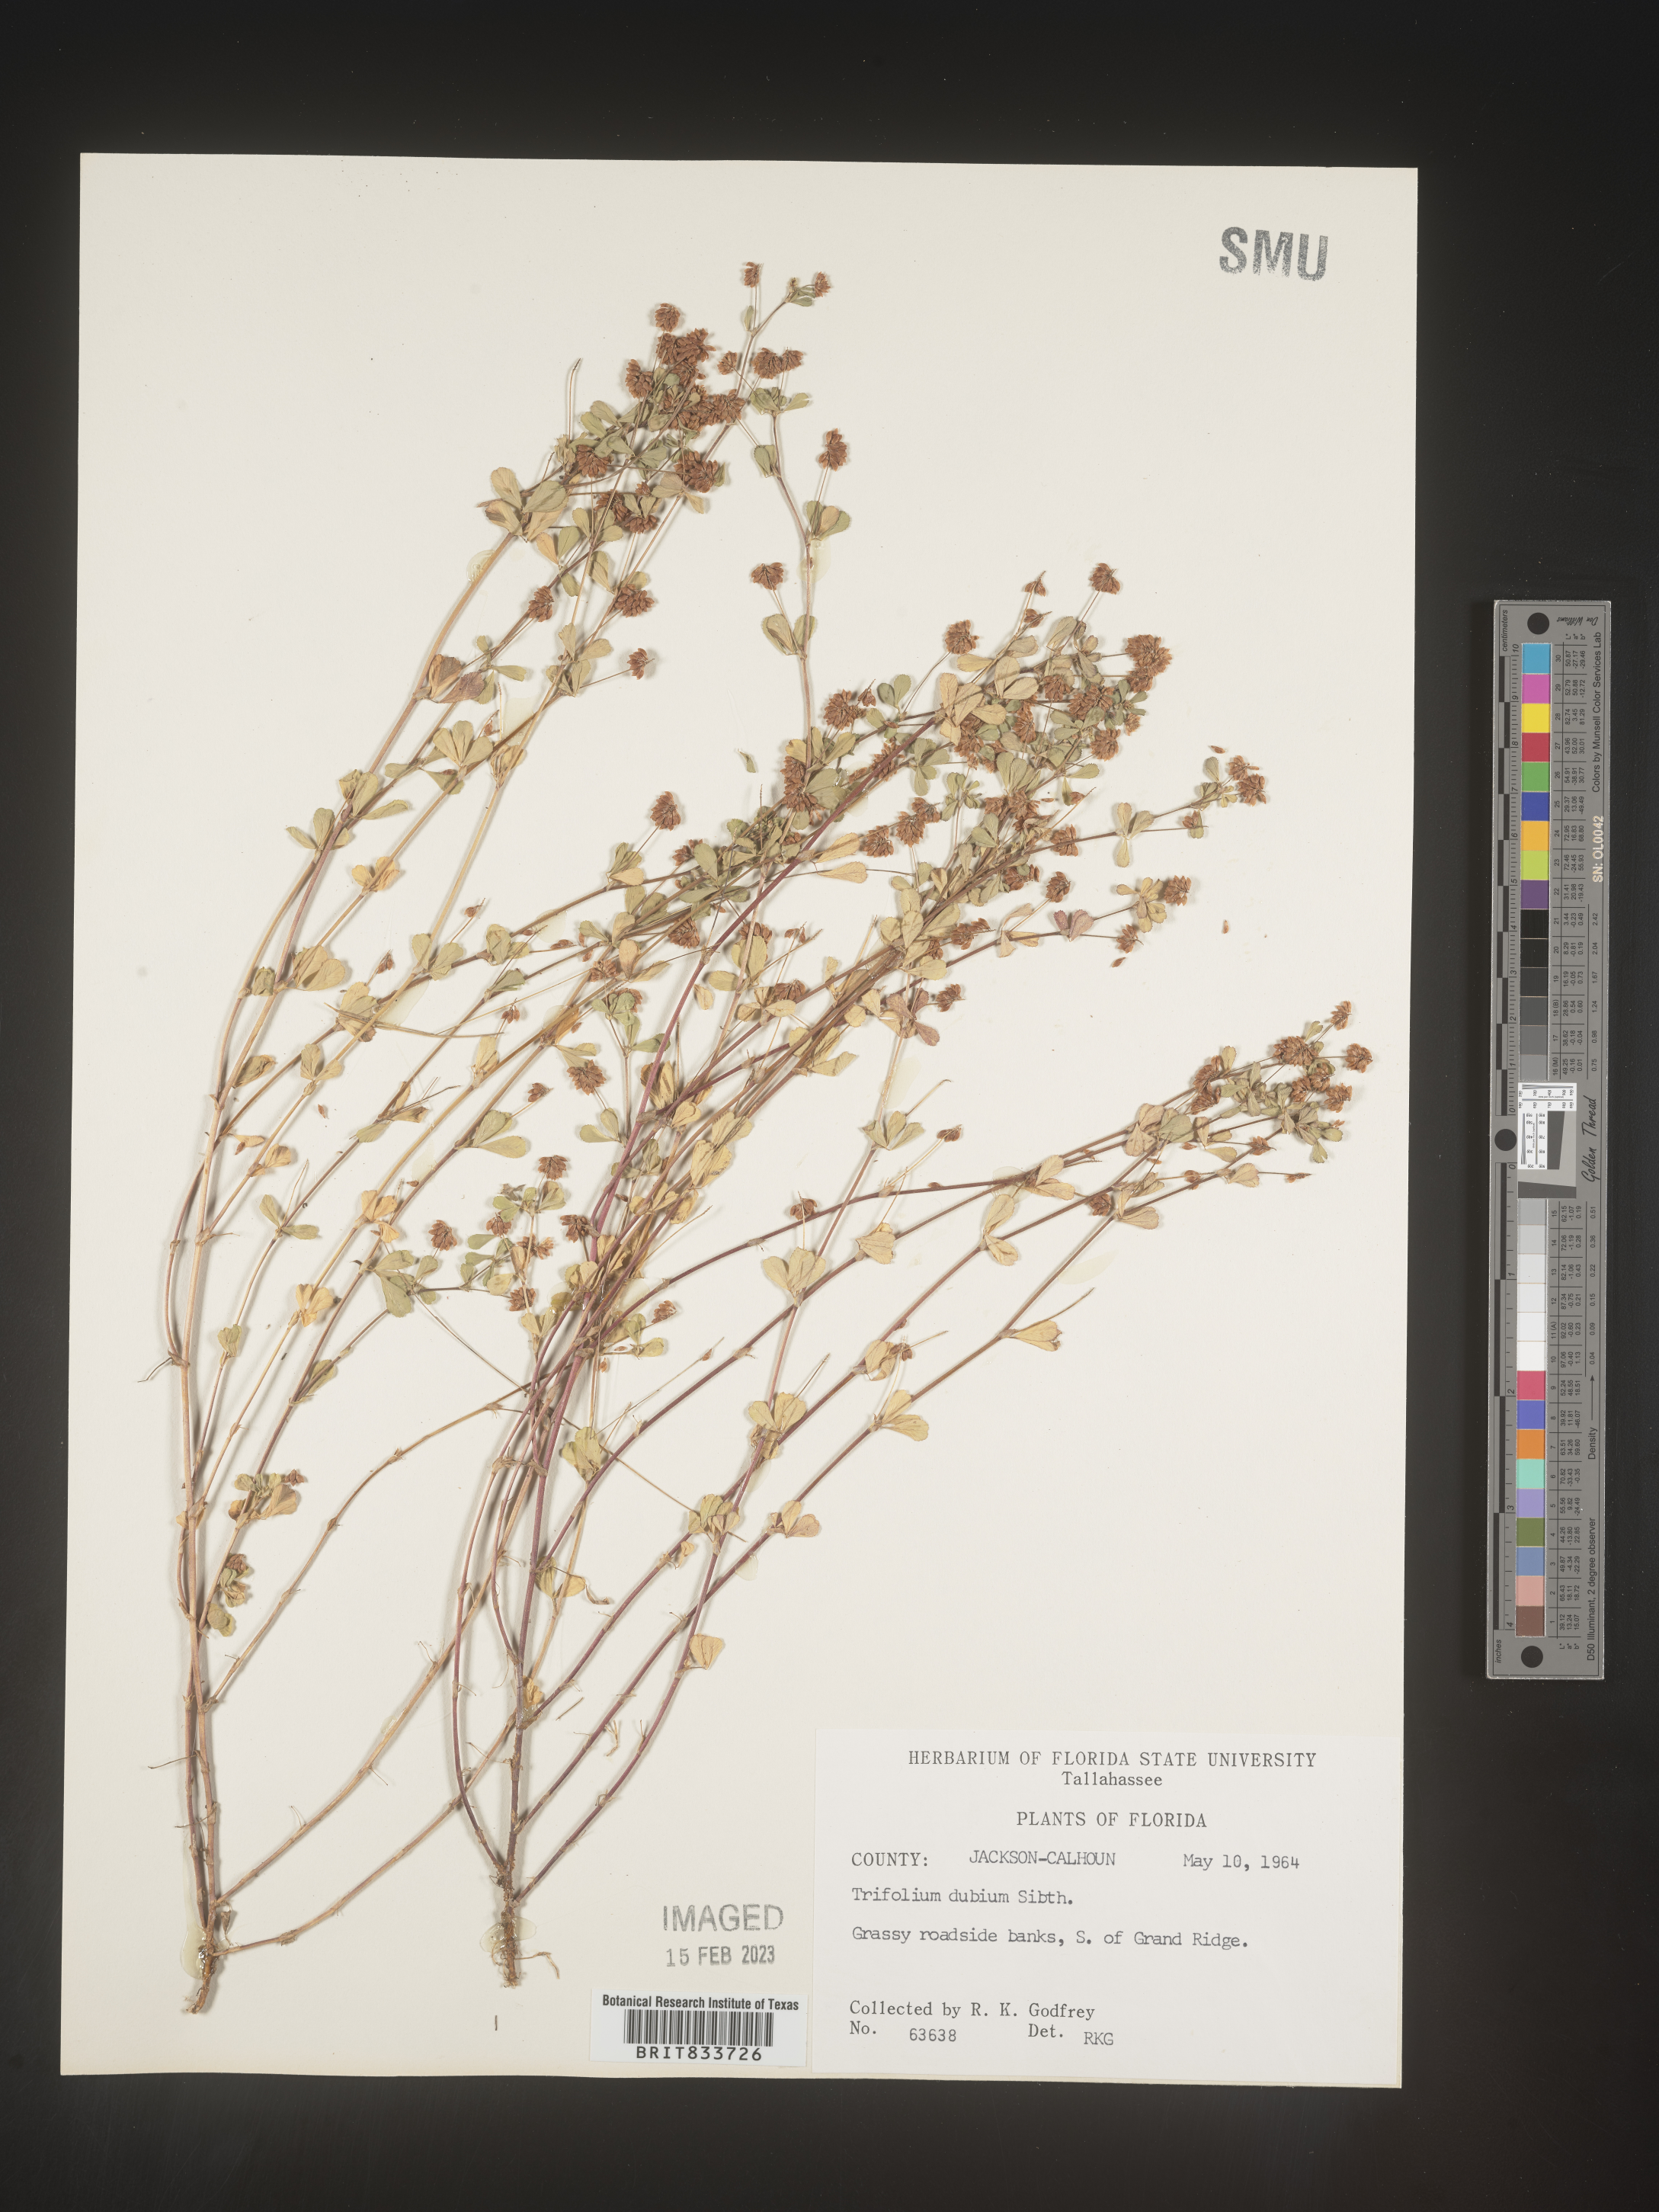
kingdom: Plantae
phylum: Tracheophyta
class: Magnoliopsida
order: Fabales
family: Fabaceae
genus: Trifolium
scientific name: Trifolium dubium
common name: Suckling clover
